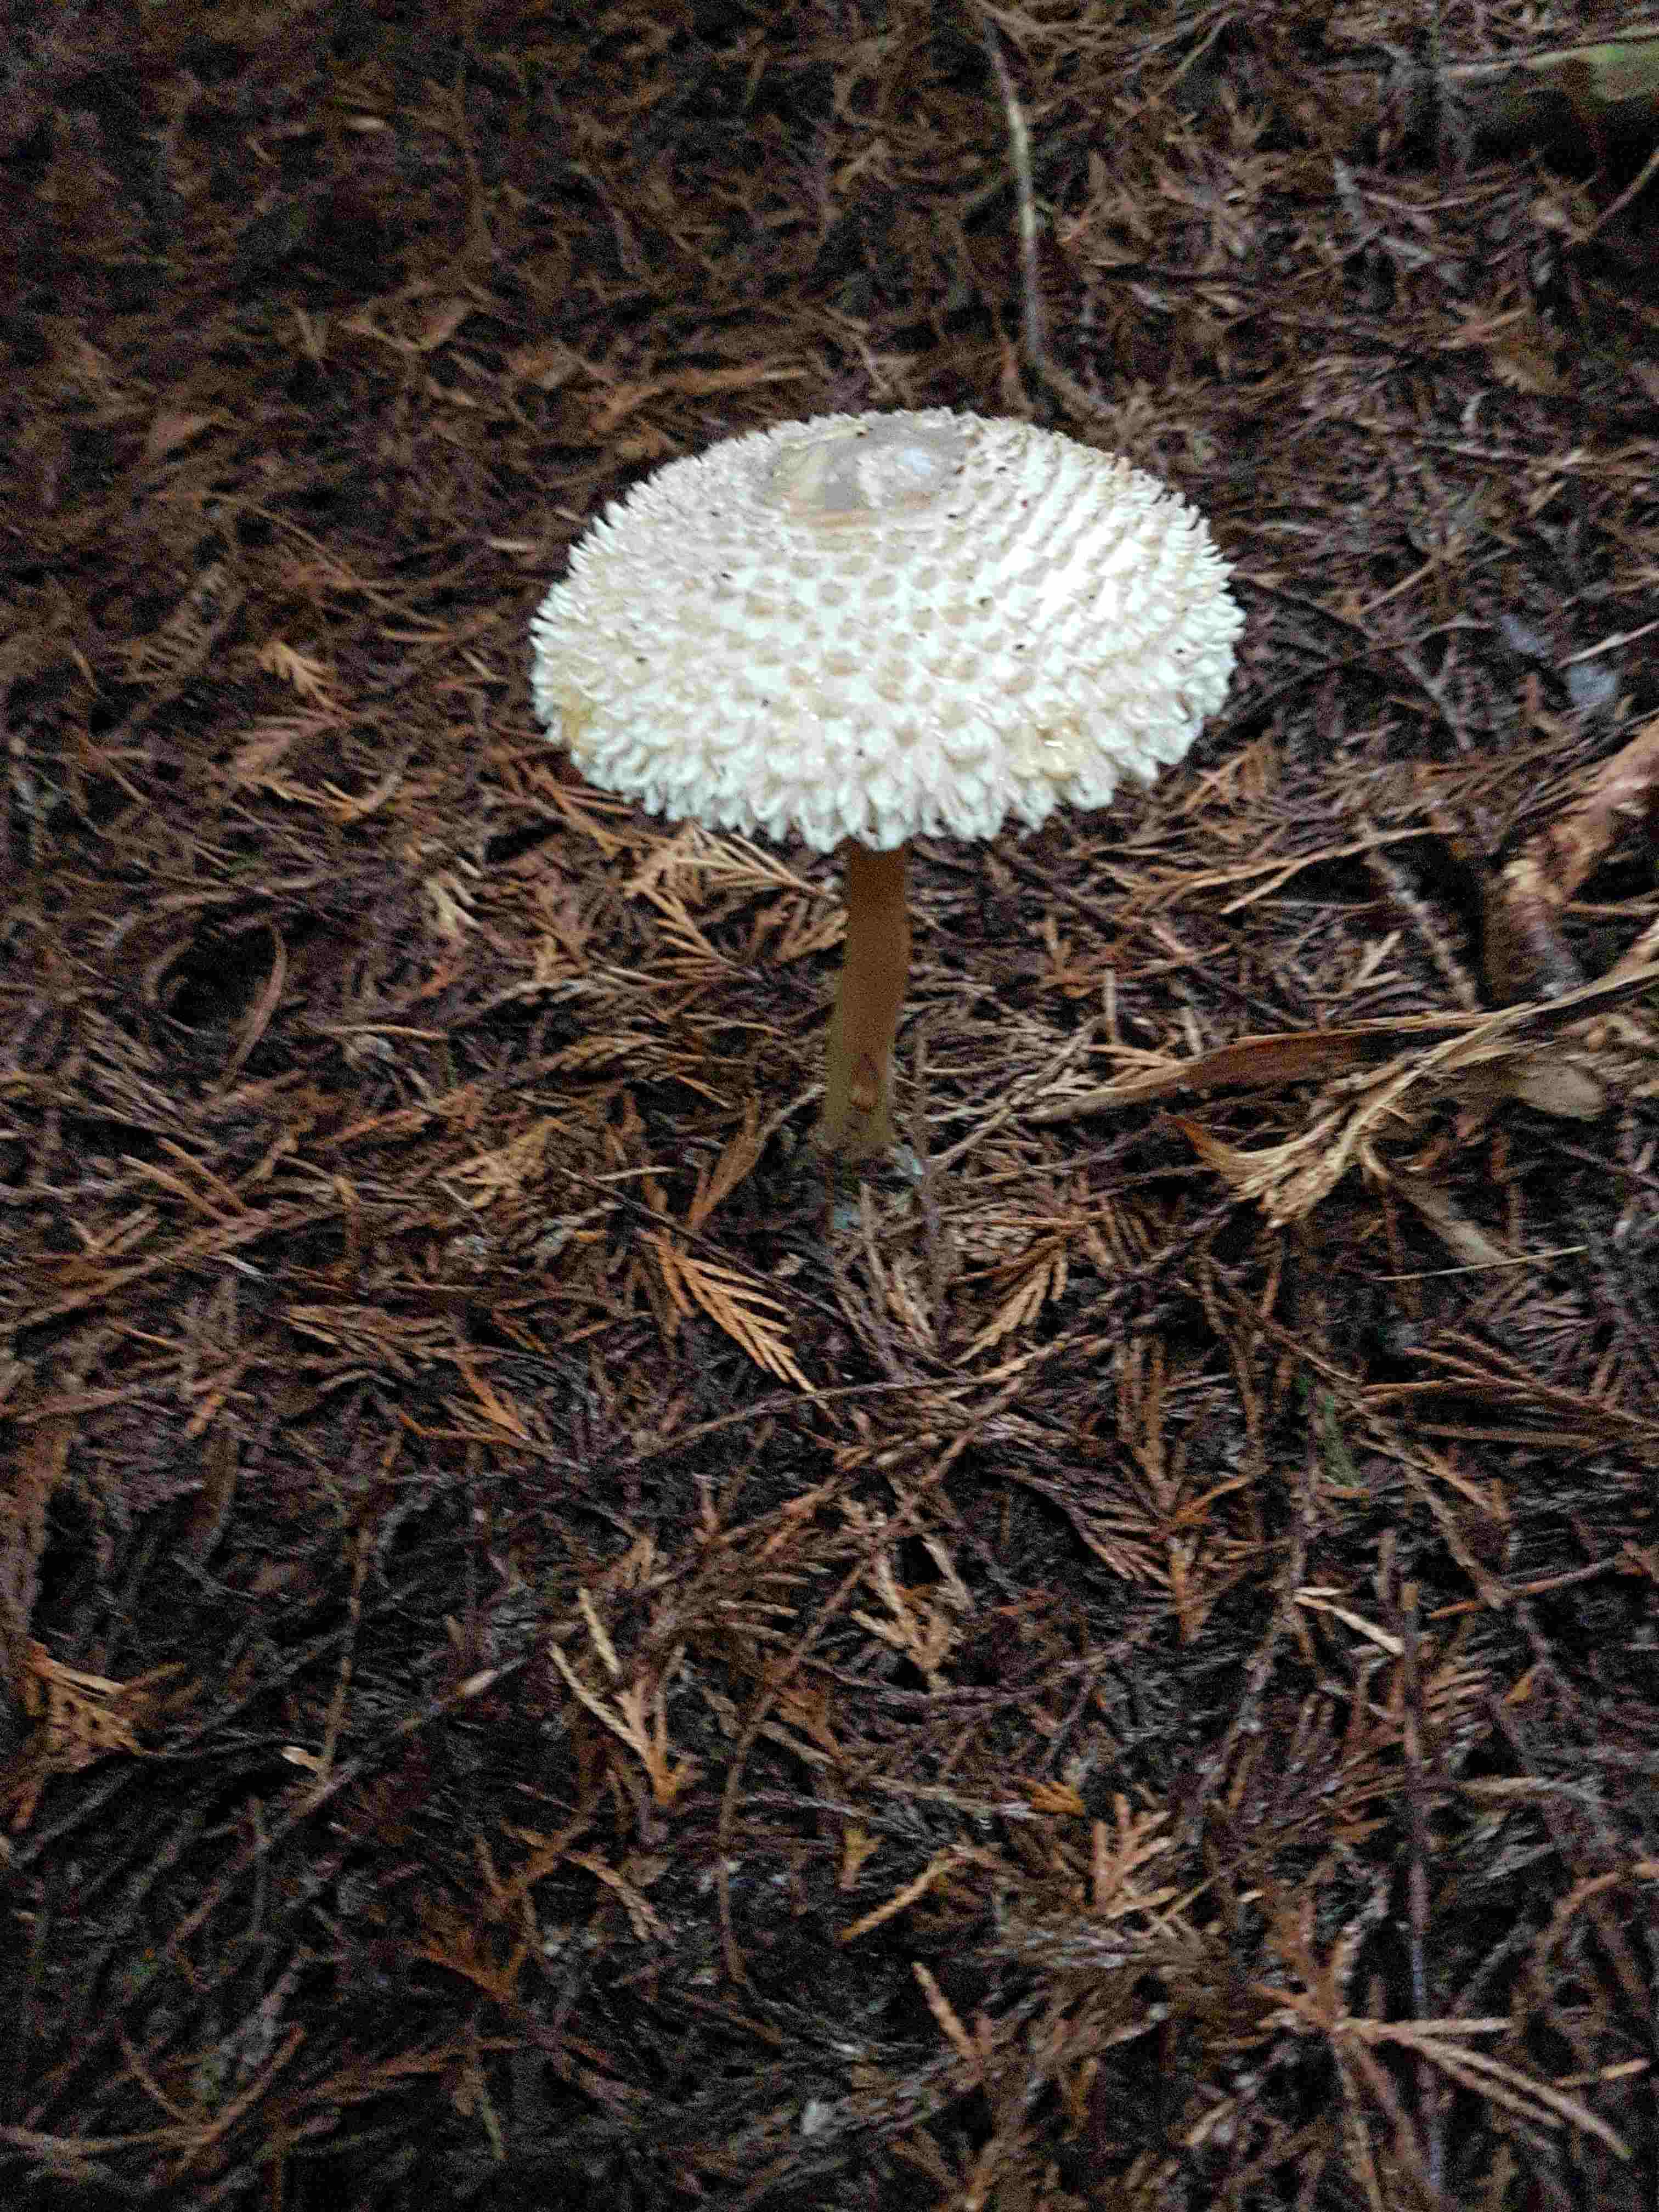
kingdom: Fungi
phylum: Basidiomycota
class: Agaricomycetes
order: Agaricales
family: Agaricaceae
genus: Leucoagaricus
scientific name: Leucoagaricus nympharum
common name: gran-silkehat
